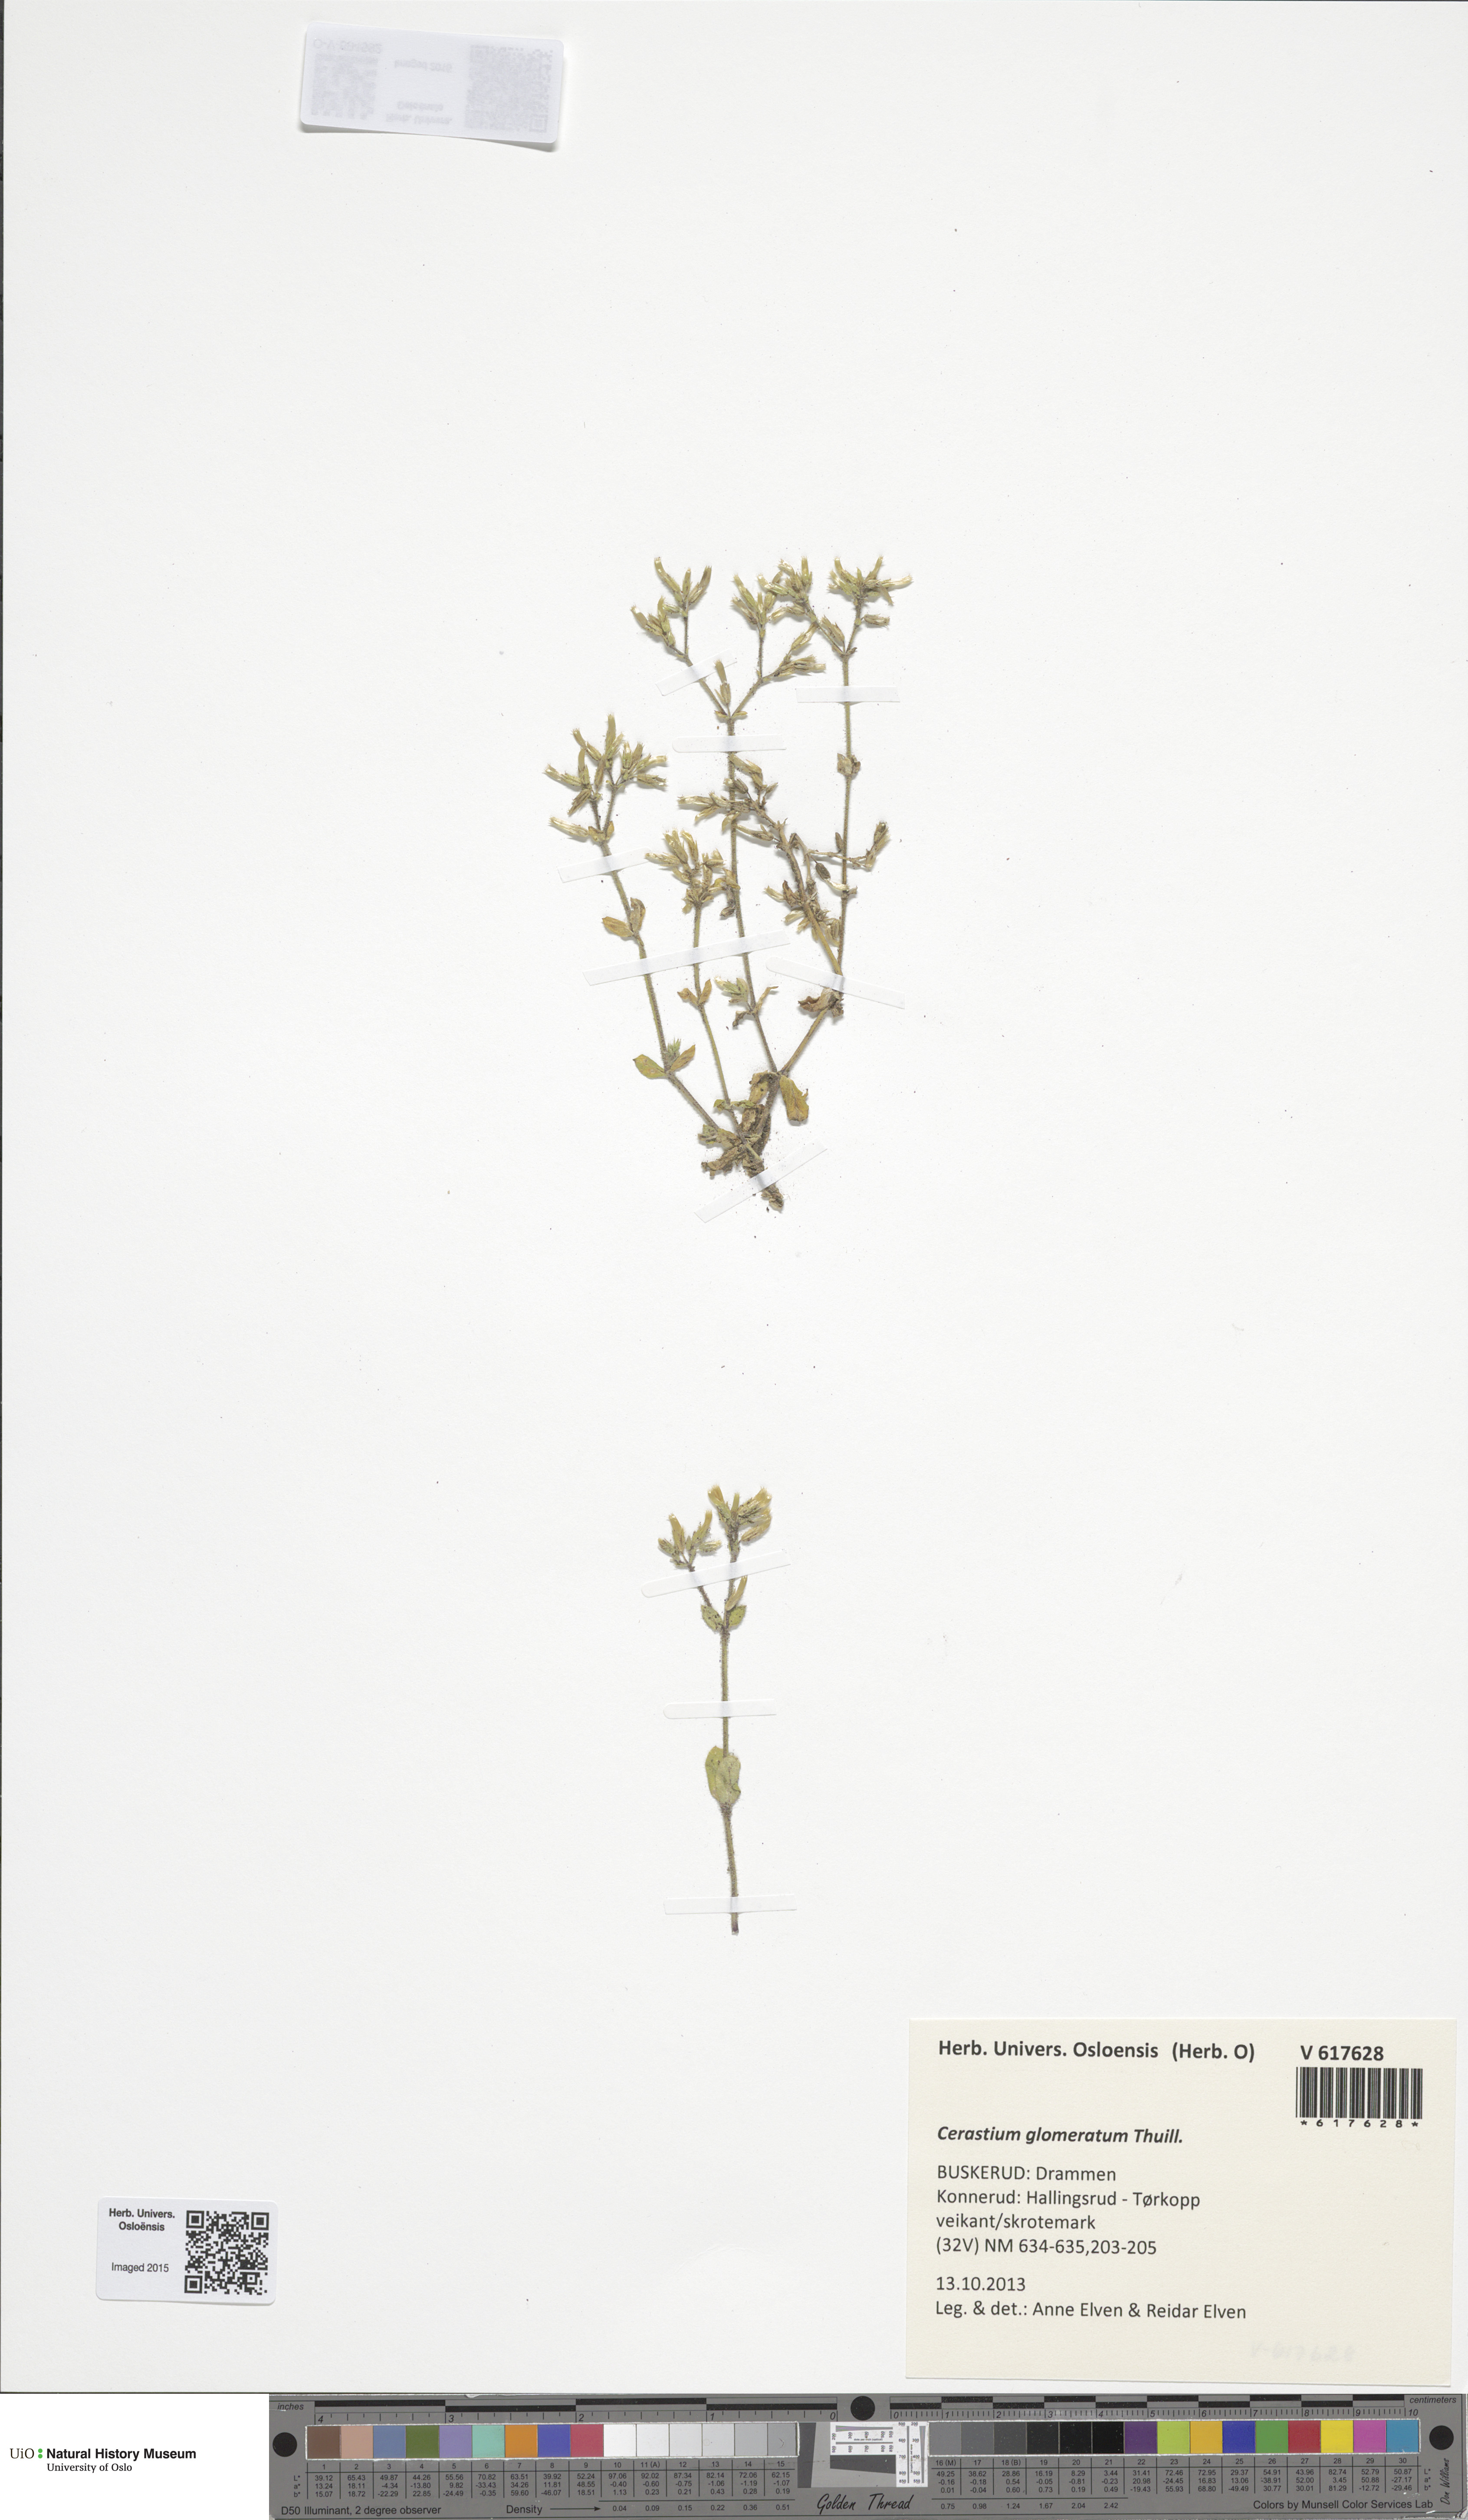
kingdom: Plantae
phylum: Tracheophyta
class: Magnoliopsida
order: Caryophyllales
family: Caryophyllaceae
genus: Cerastium
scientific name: Cerastium glomeratum
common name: Sticky chickweed
